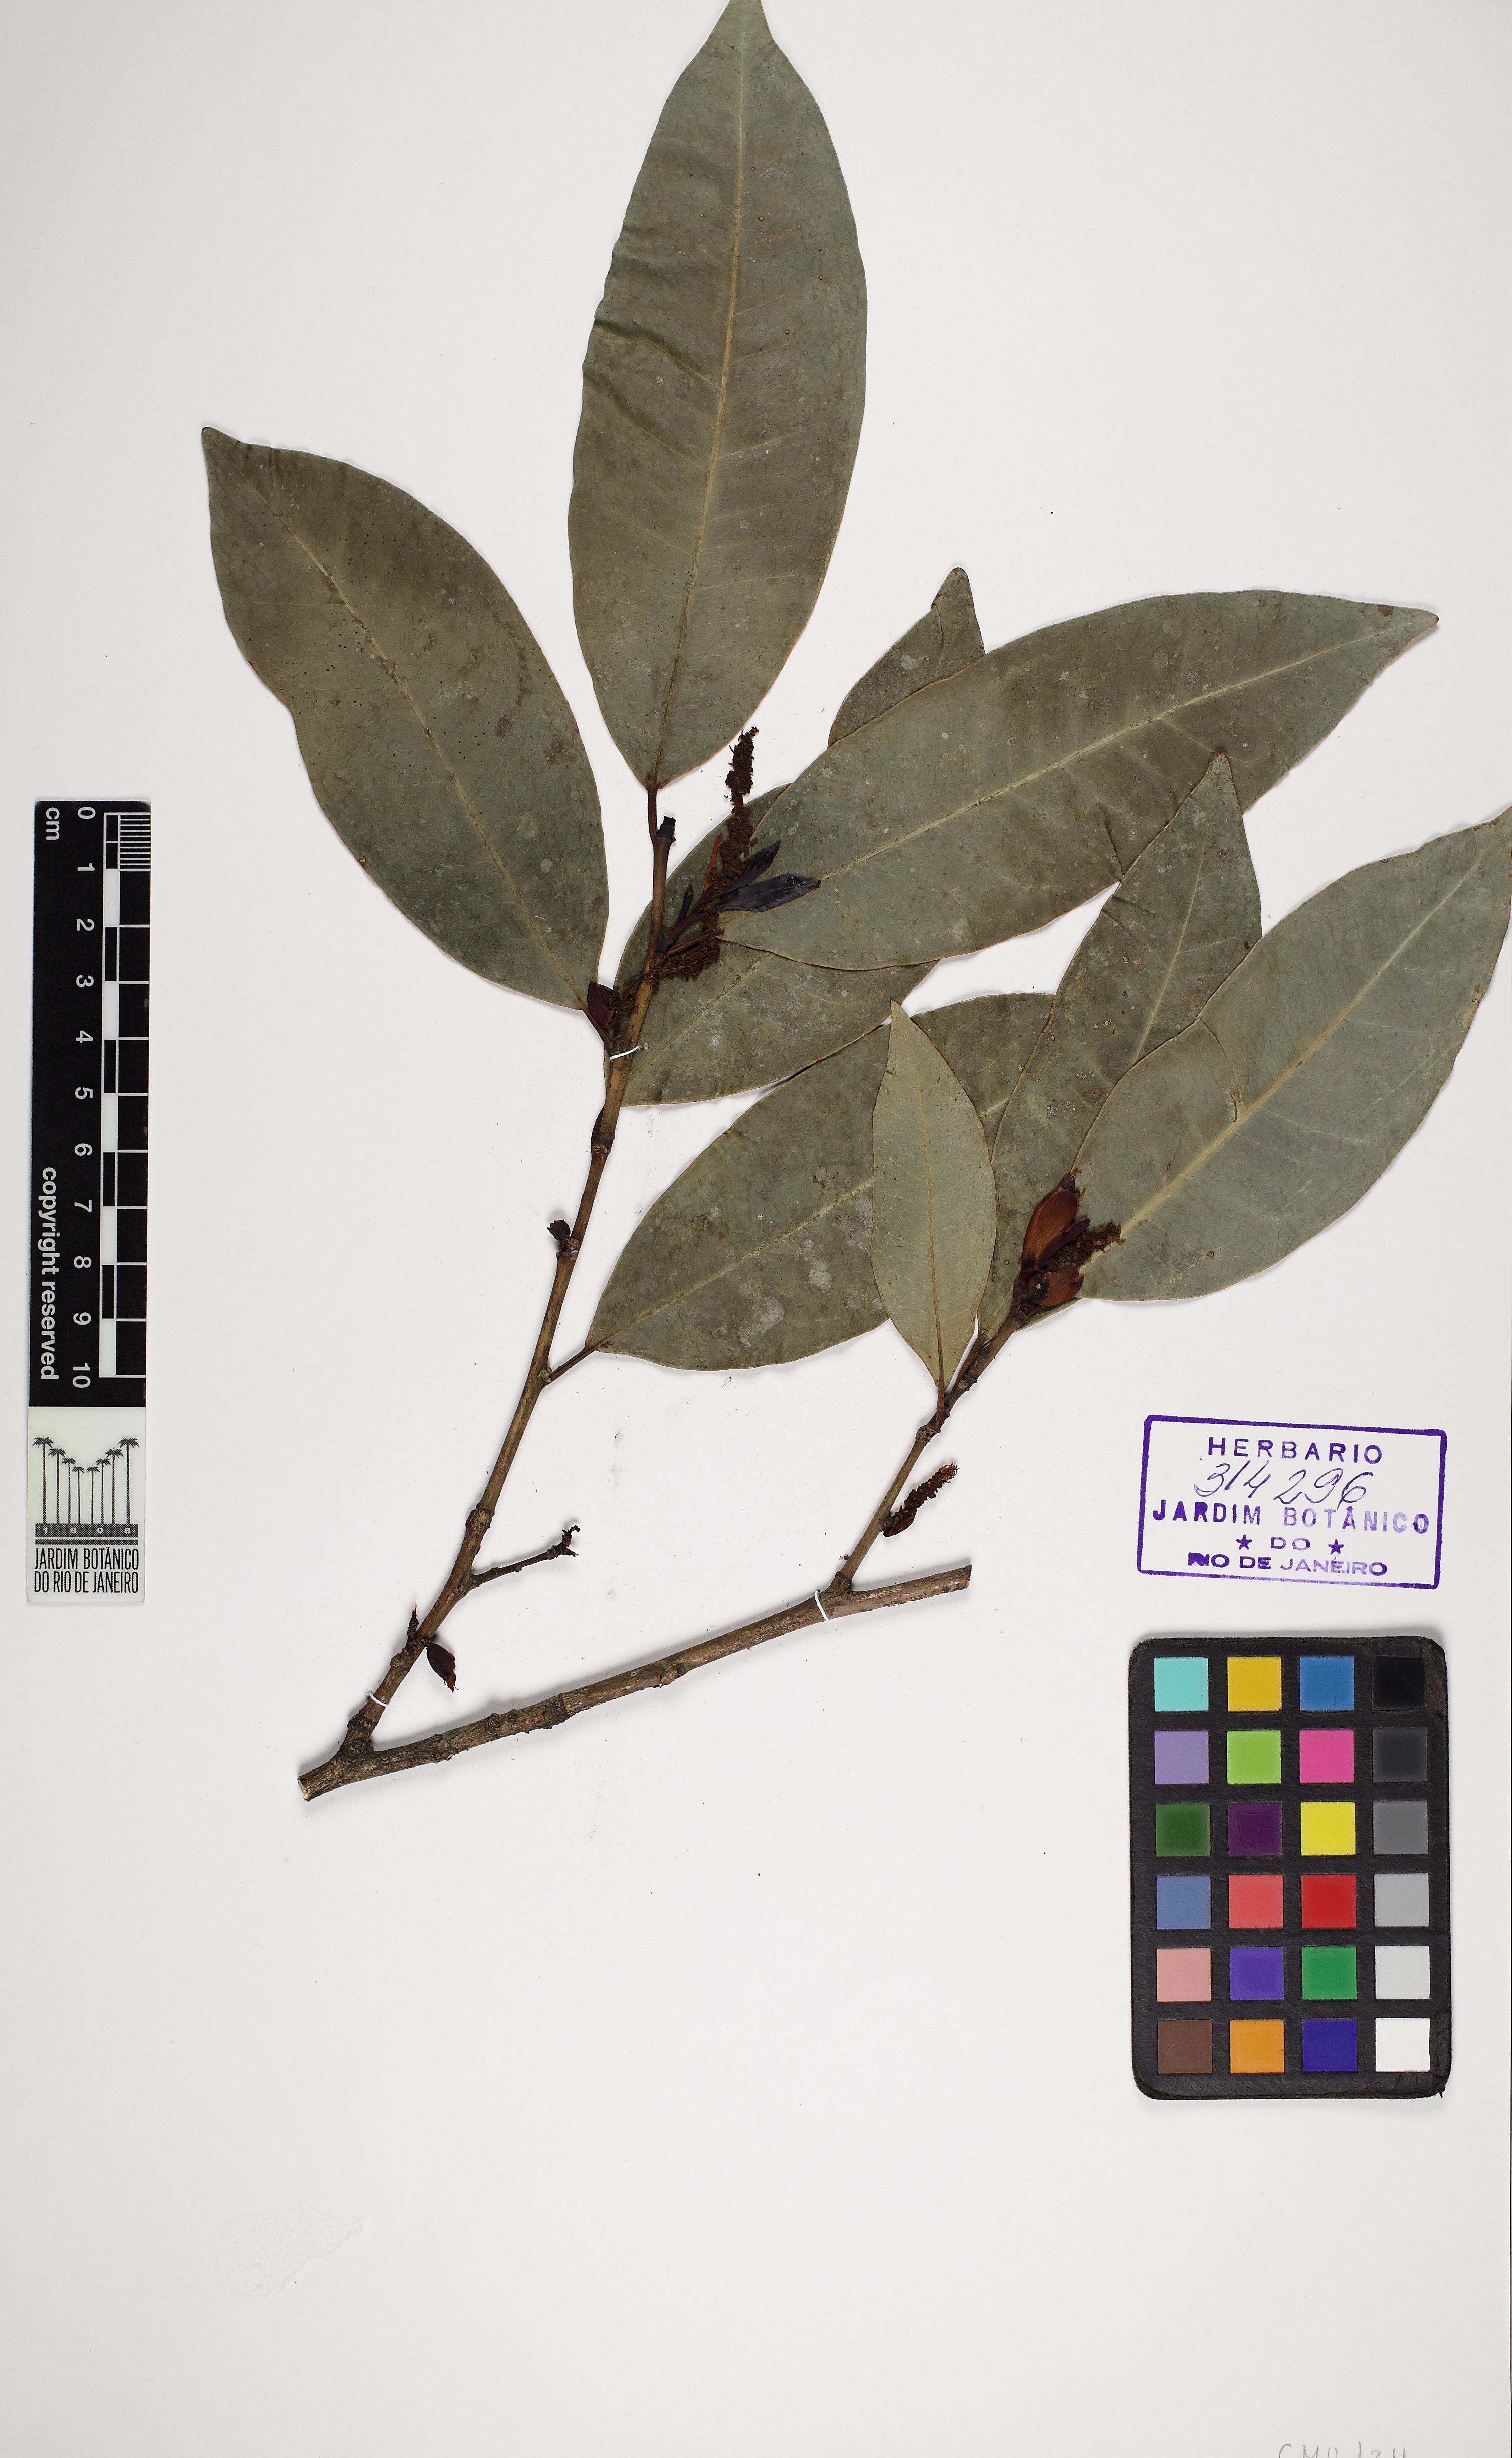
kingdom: Plantae
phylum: Tracheophyta
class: Magnoliopsida
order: Malpighiales
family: Euphorbiaceae
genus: Actinostemon
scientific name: Actinostemon concolor
